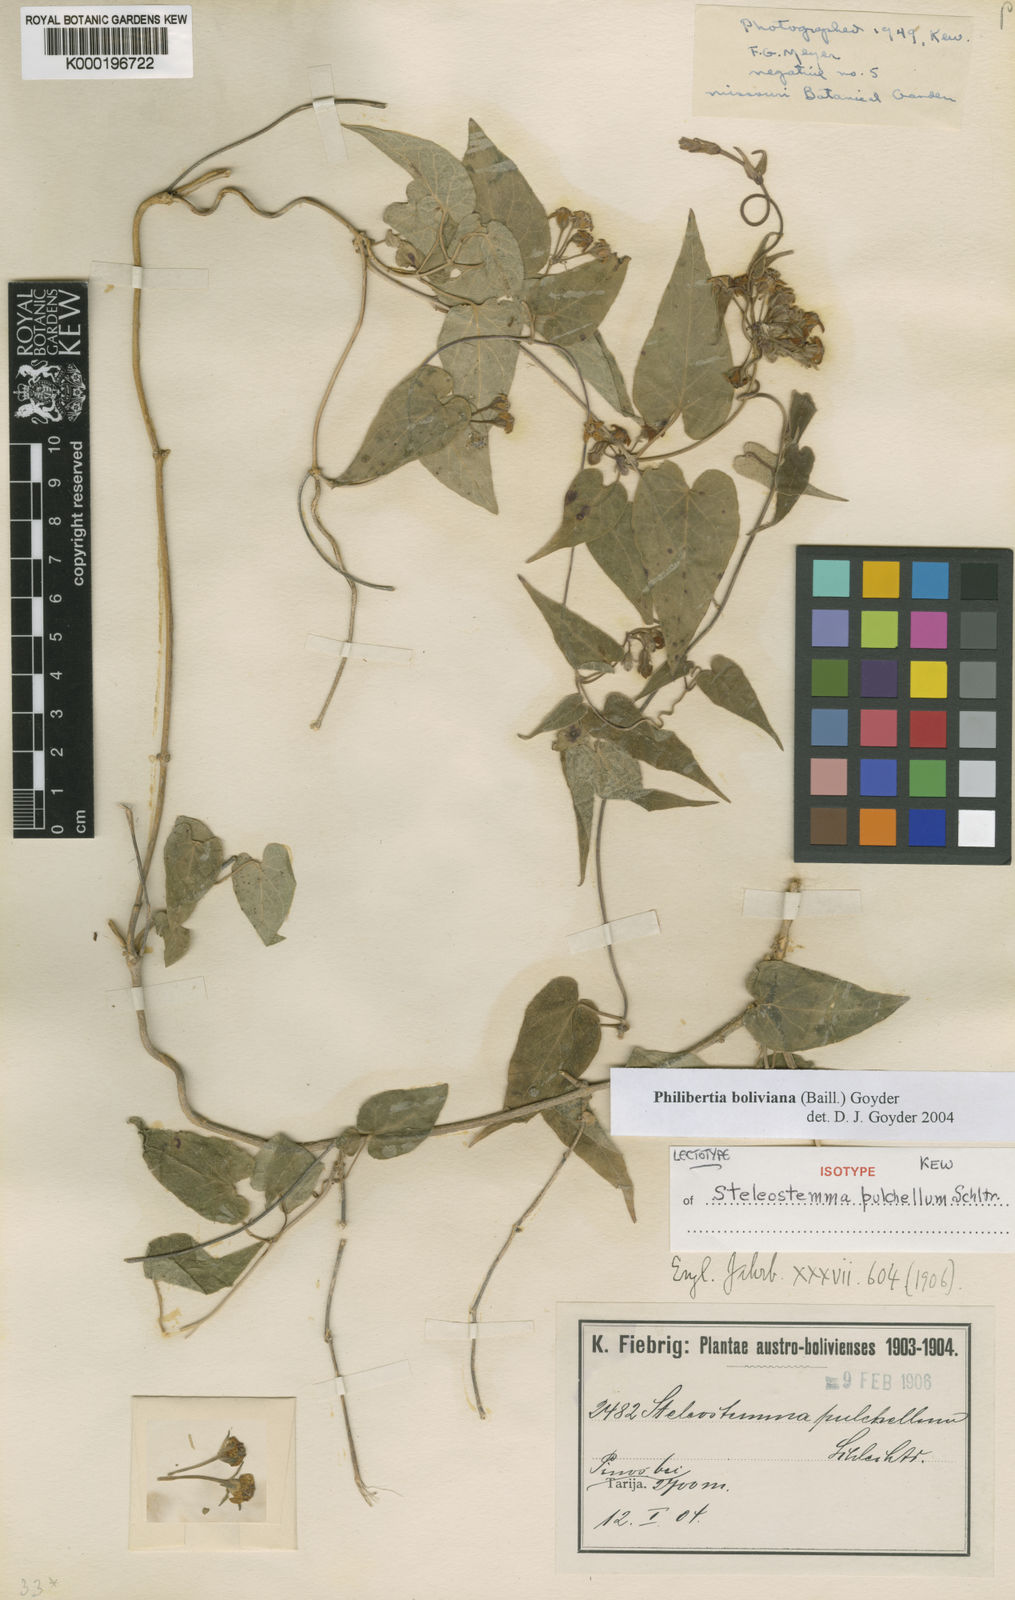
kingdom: Plantae
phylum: Tracheophyta
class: Magnoliopsida
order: Gentianales
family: Apocynaceae
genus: Philibertia
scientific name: Philibertia boliviana
